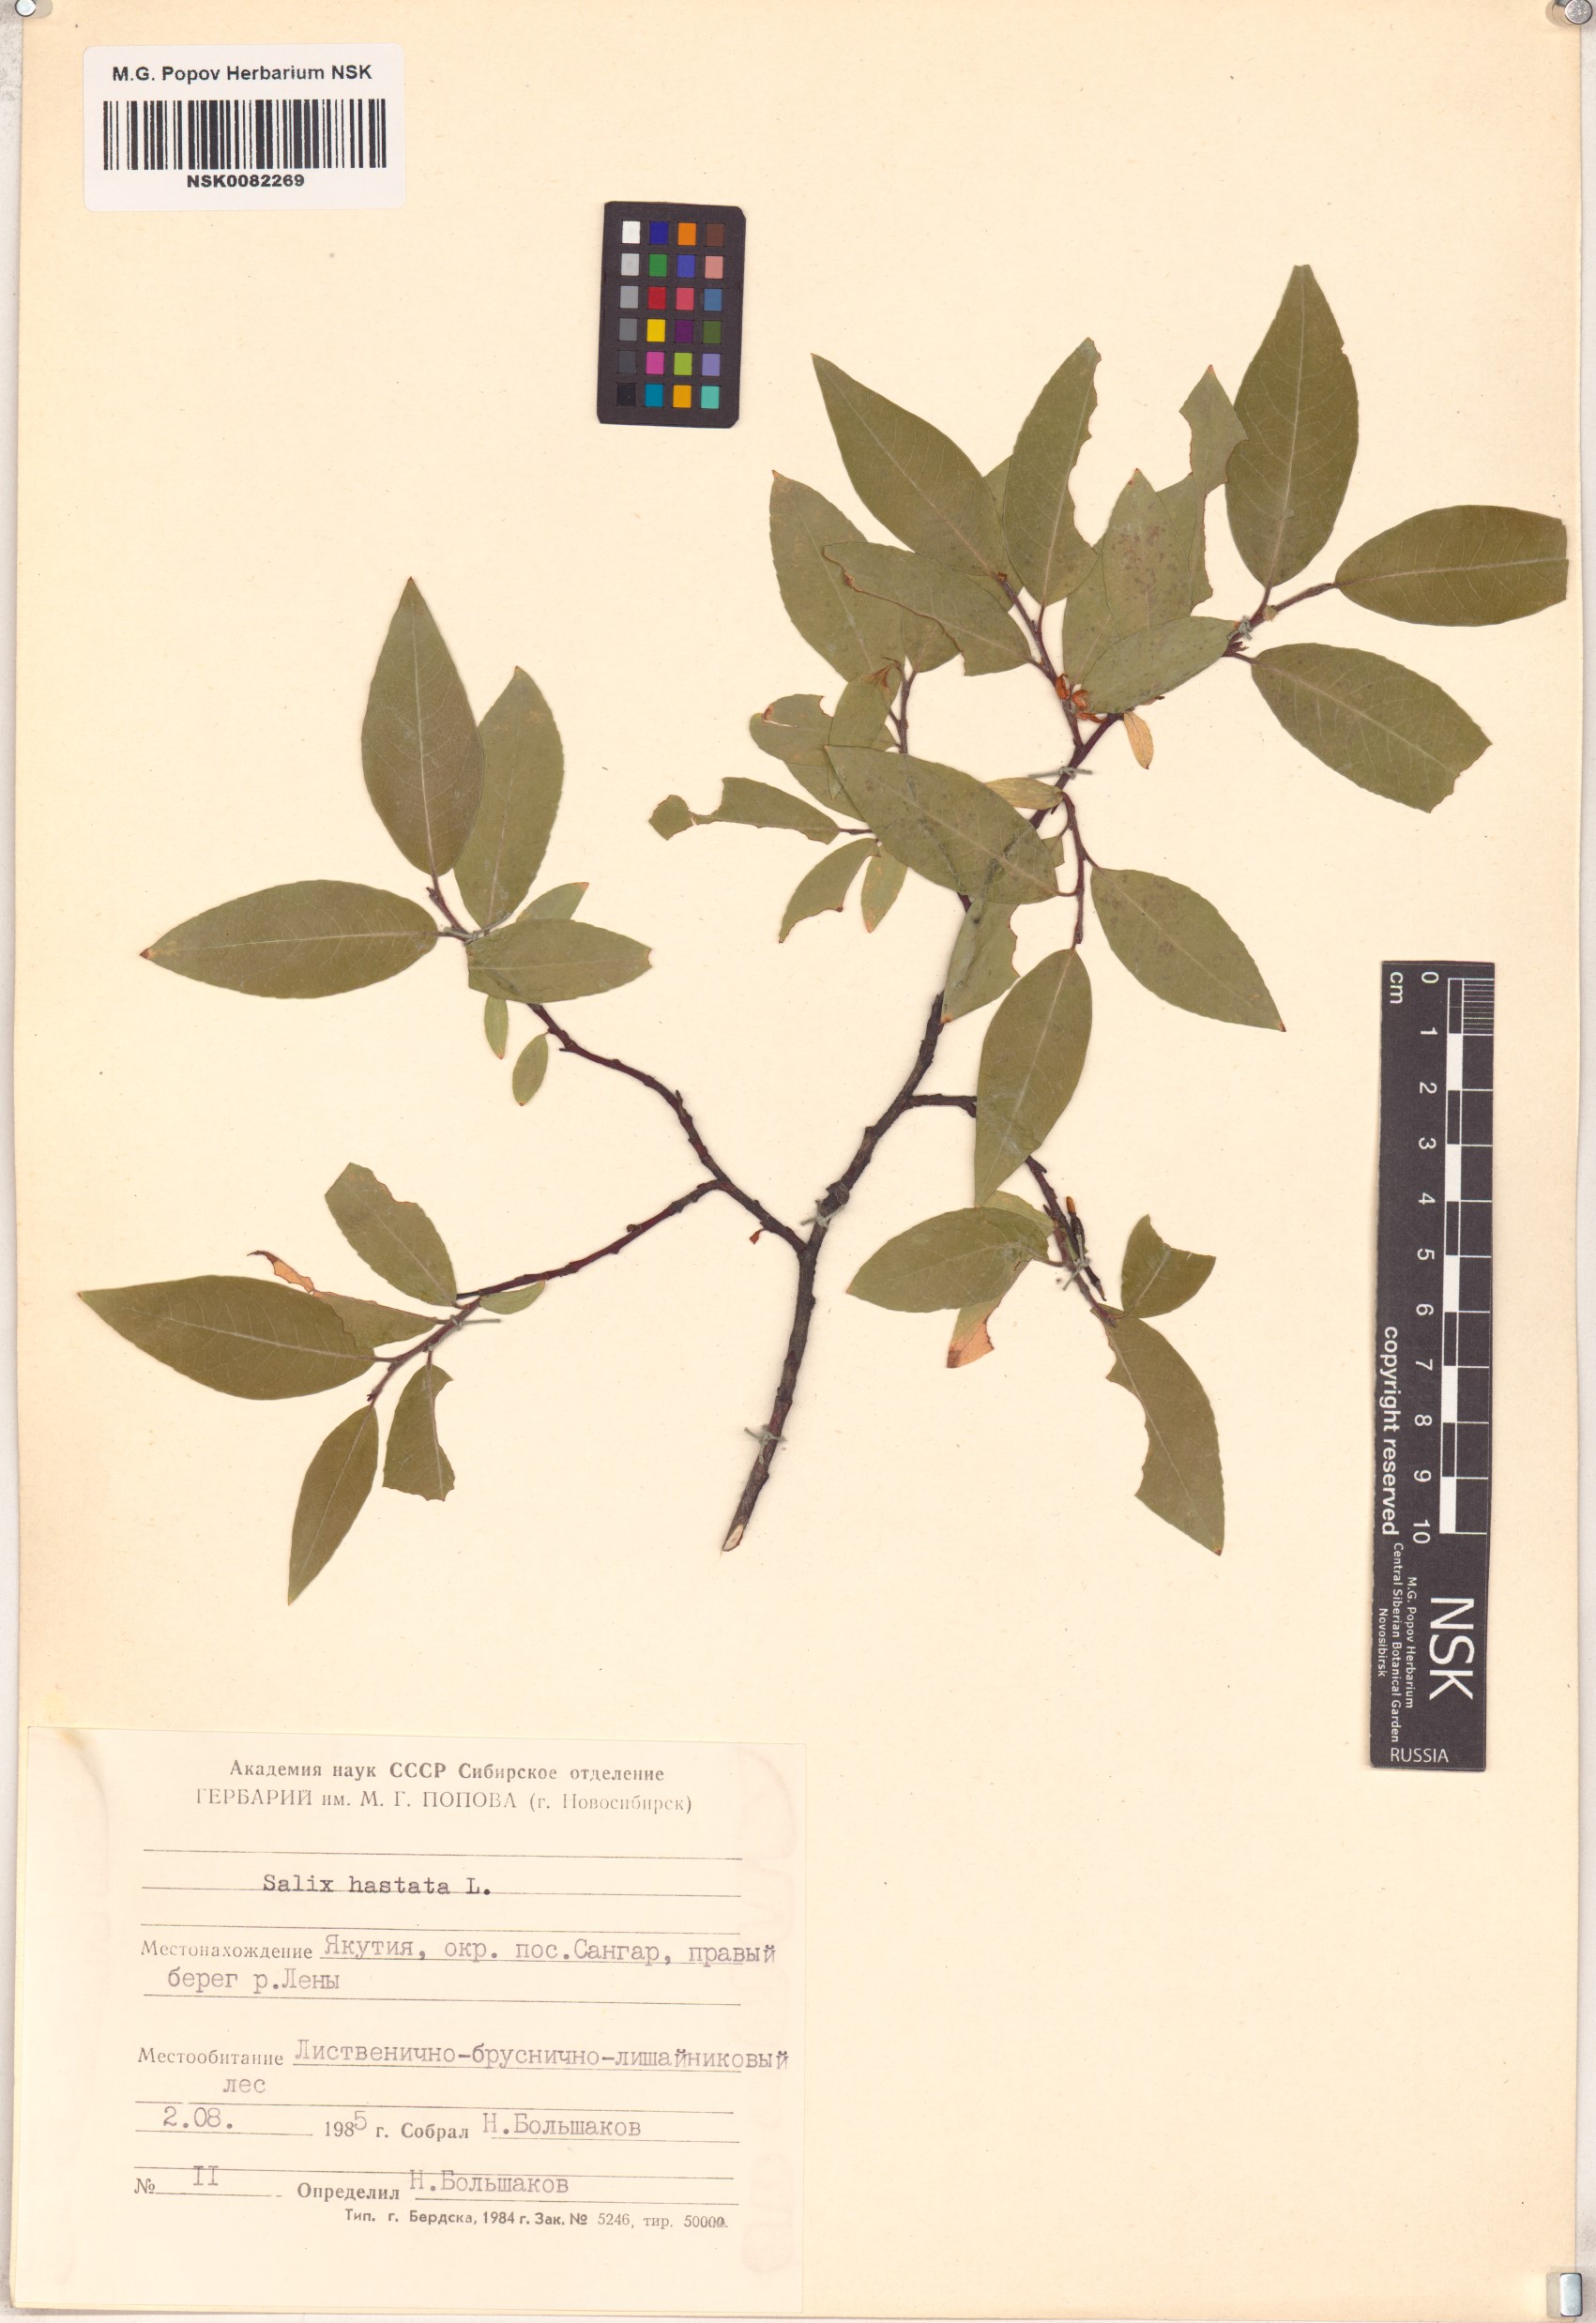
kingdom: Plantae
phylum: Tracheophyta
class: Magnoliopsida
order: Malpighiales
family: Salicaceae
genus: Salix
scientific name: Salix hastata
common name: Halberd willow
